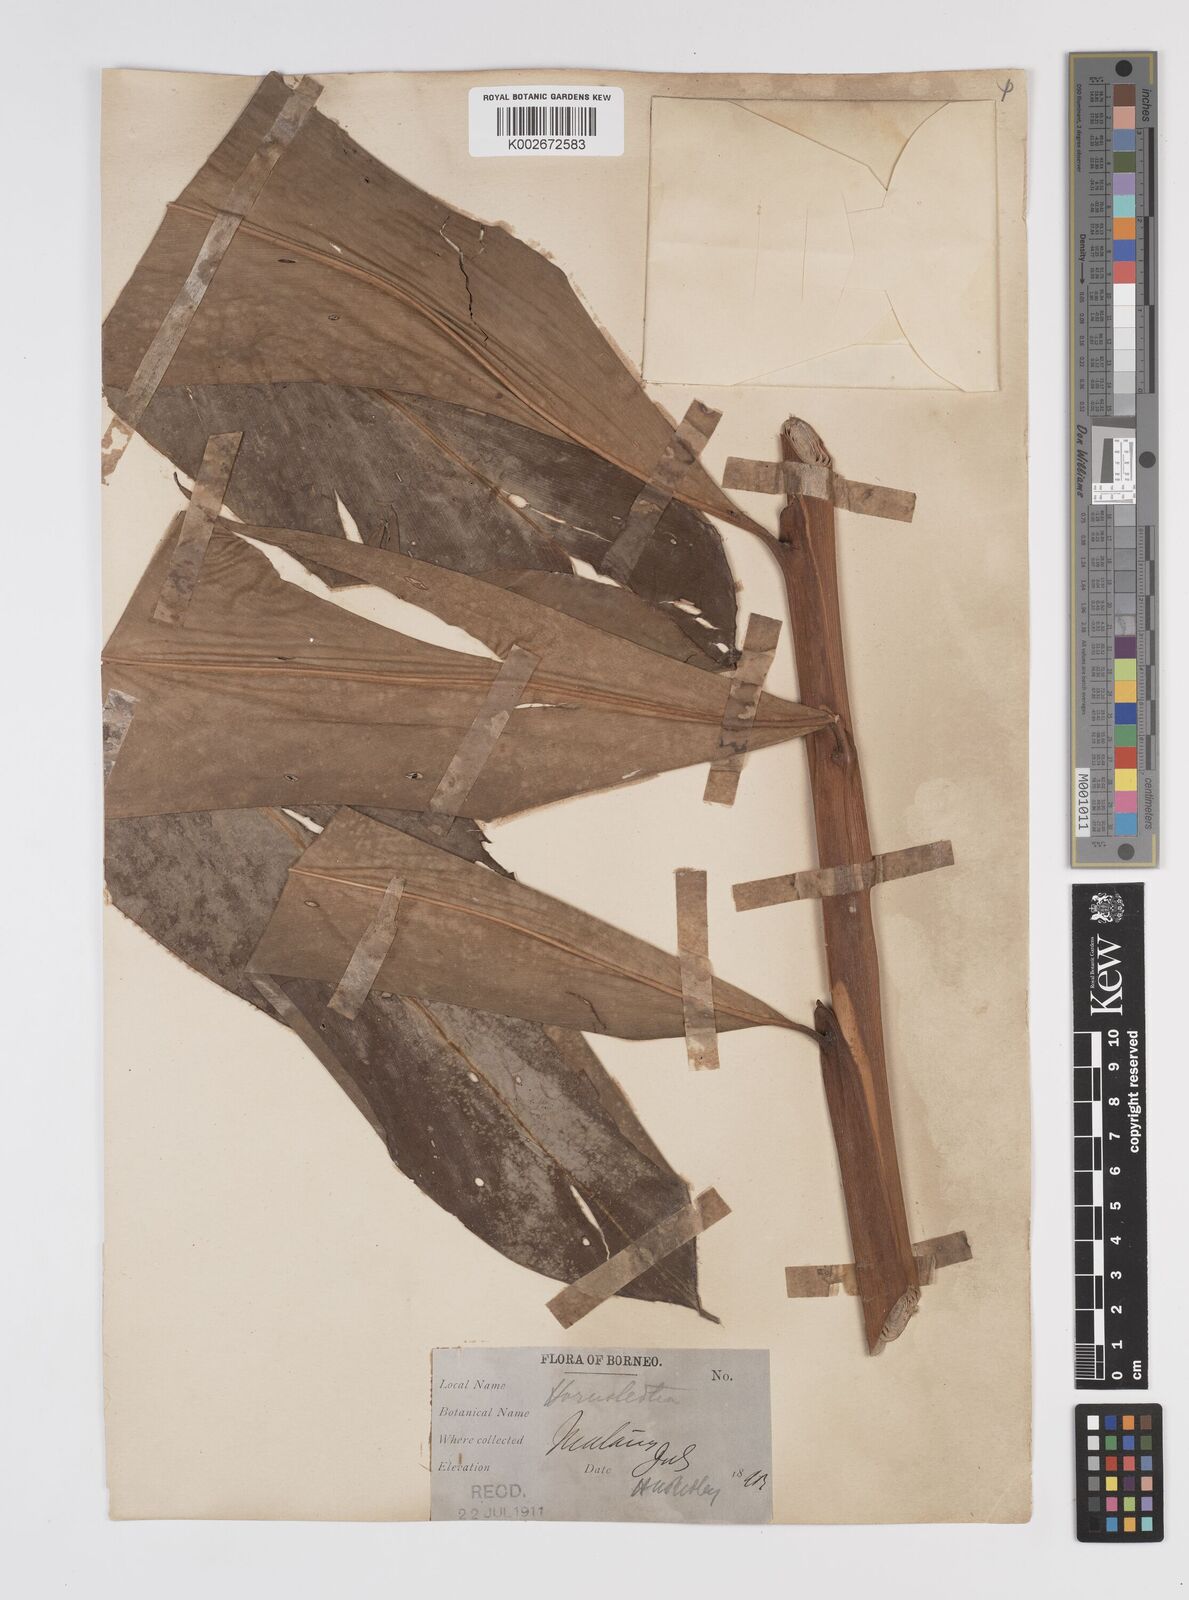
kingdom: Plantae
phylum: Tracheophyta
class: Liliopsida
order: Zingiberales
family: Zingiberaceae
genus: Etlingera
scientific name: Etlingera brachychila
